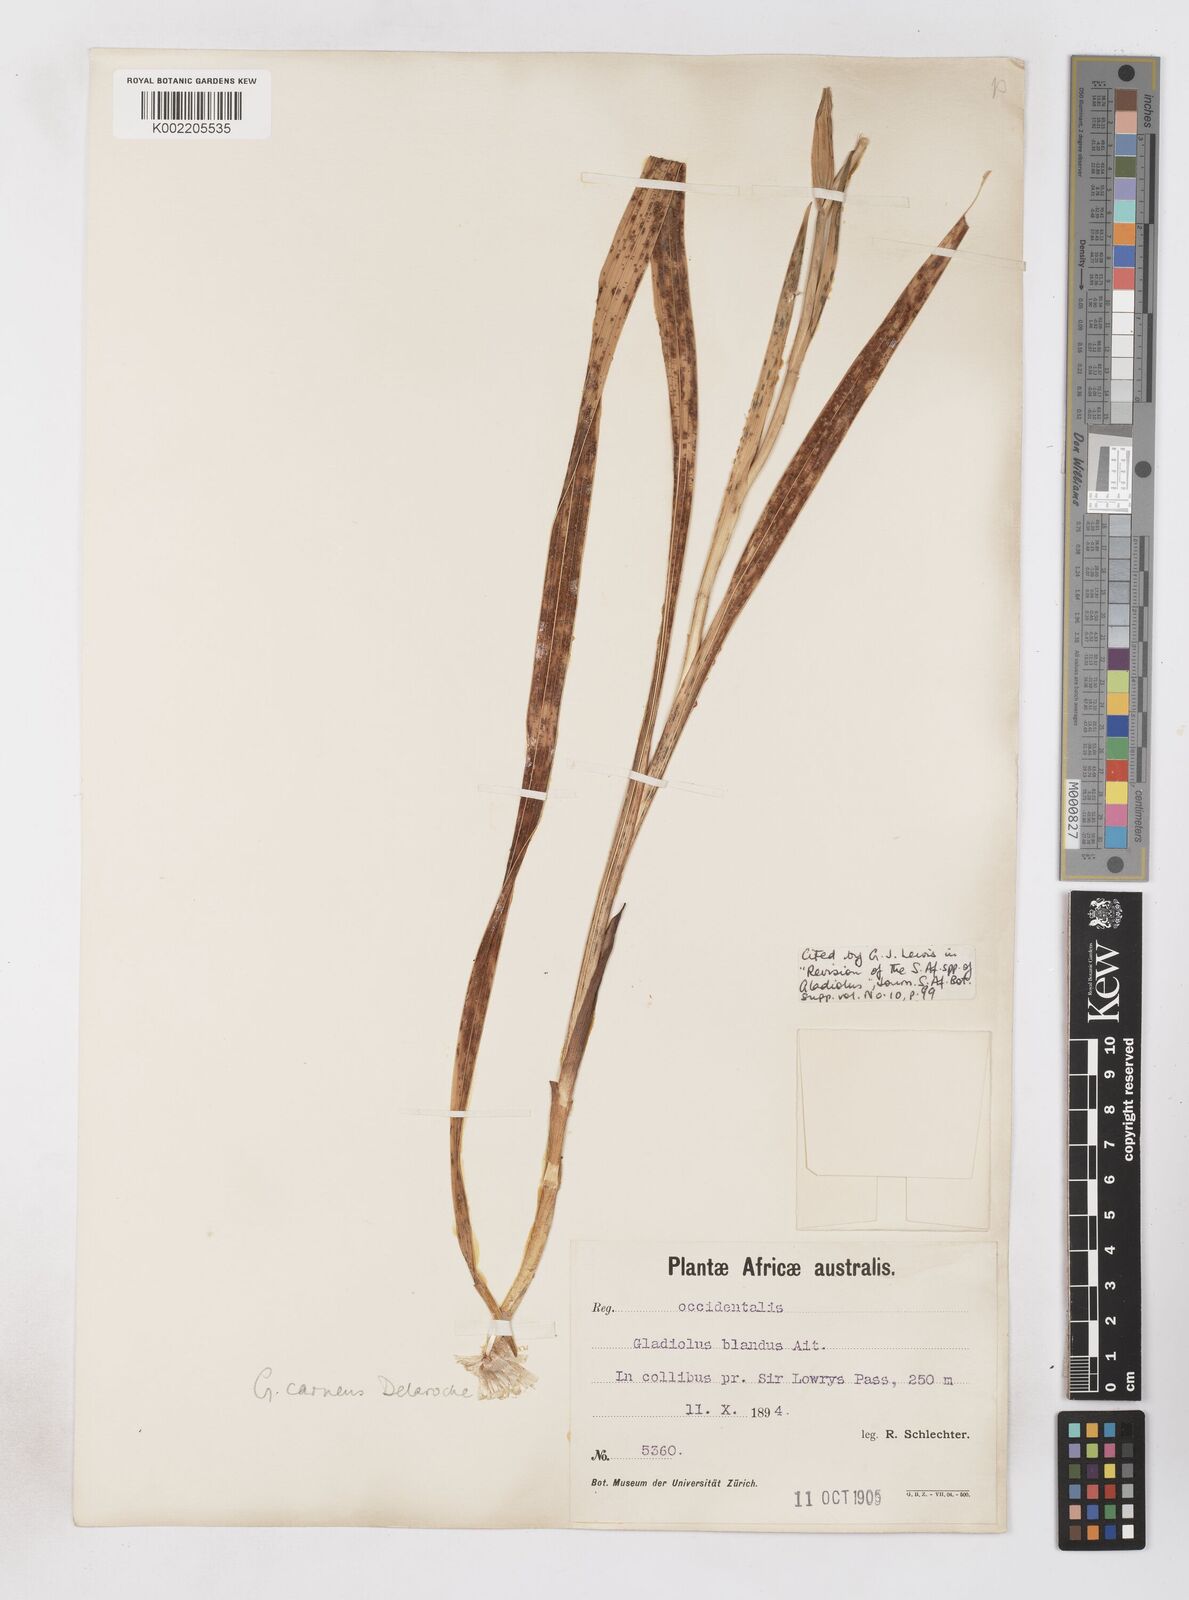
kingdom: Plantae
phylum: Tracheophyta
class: Liliopsida
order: Asparagales
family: Iridaceae
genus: Gladiolus
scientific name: Gladiolus carneus
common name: Painted-lady
